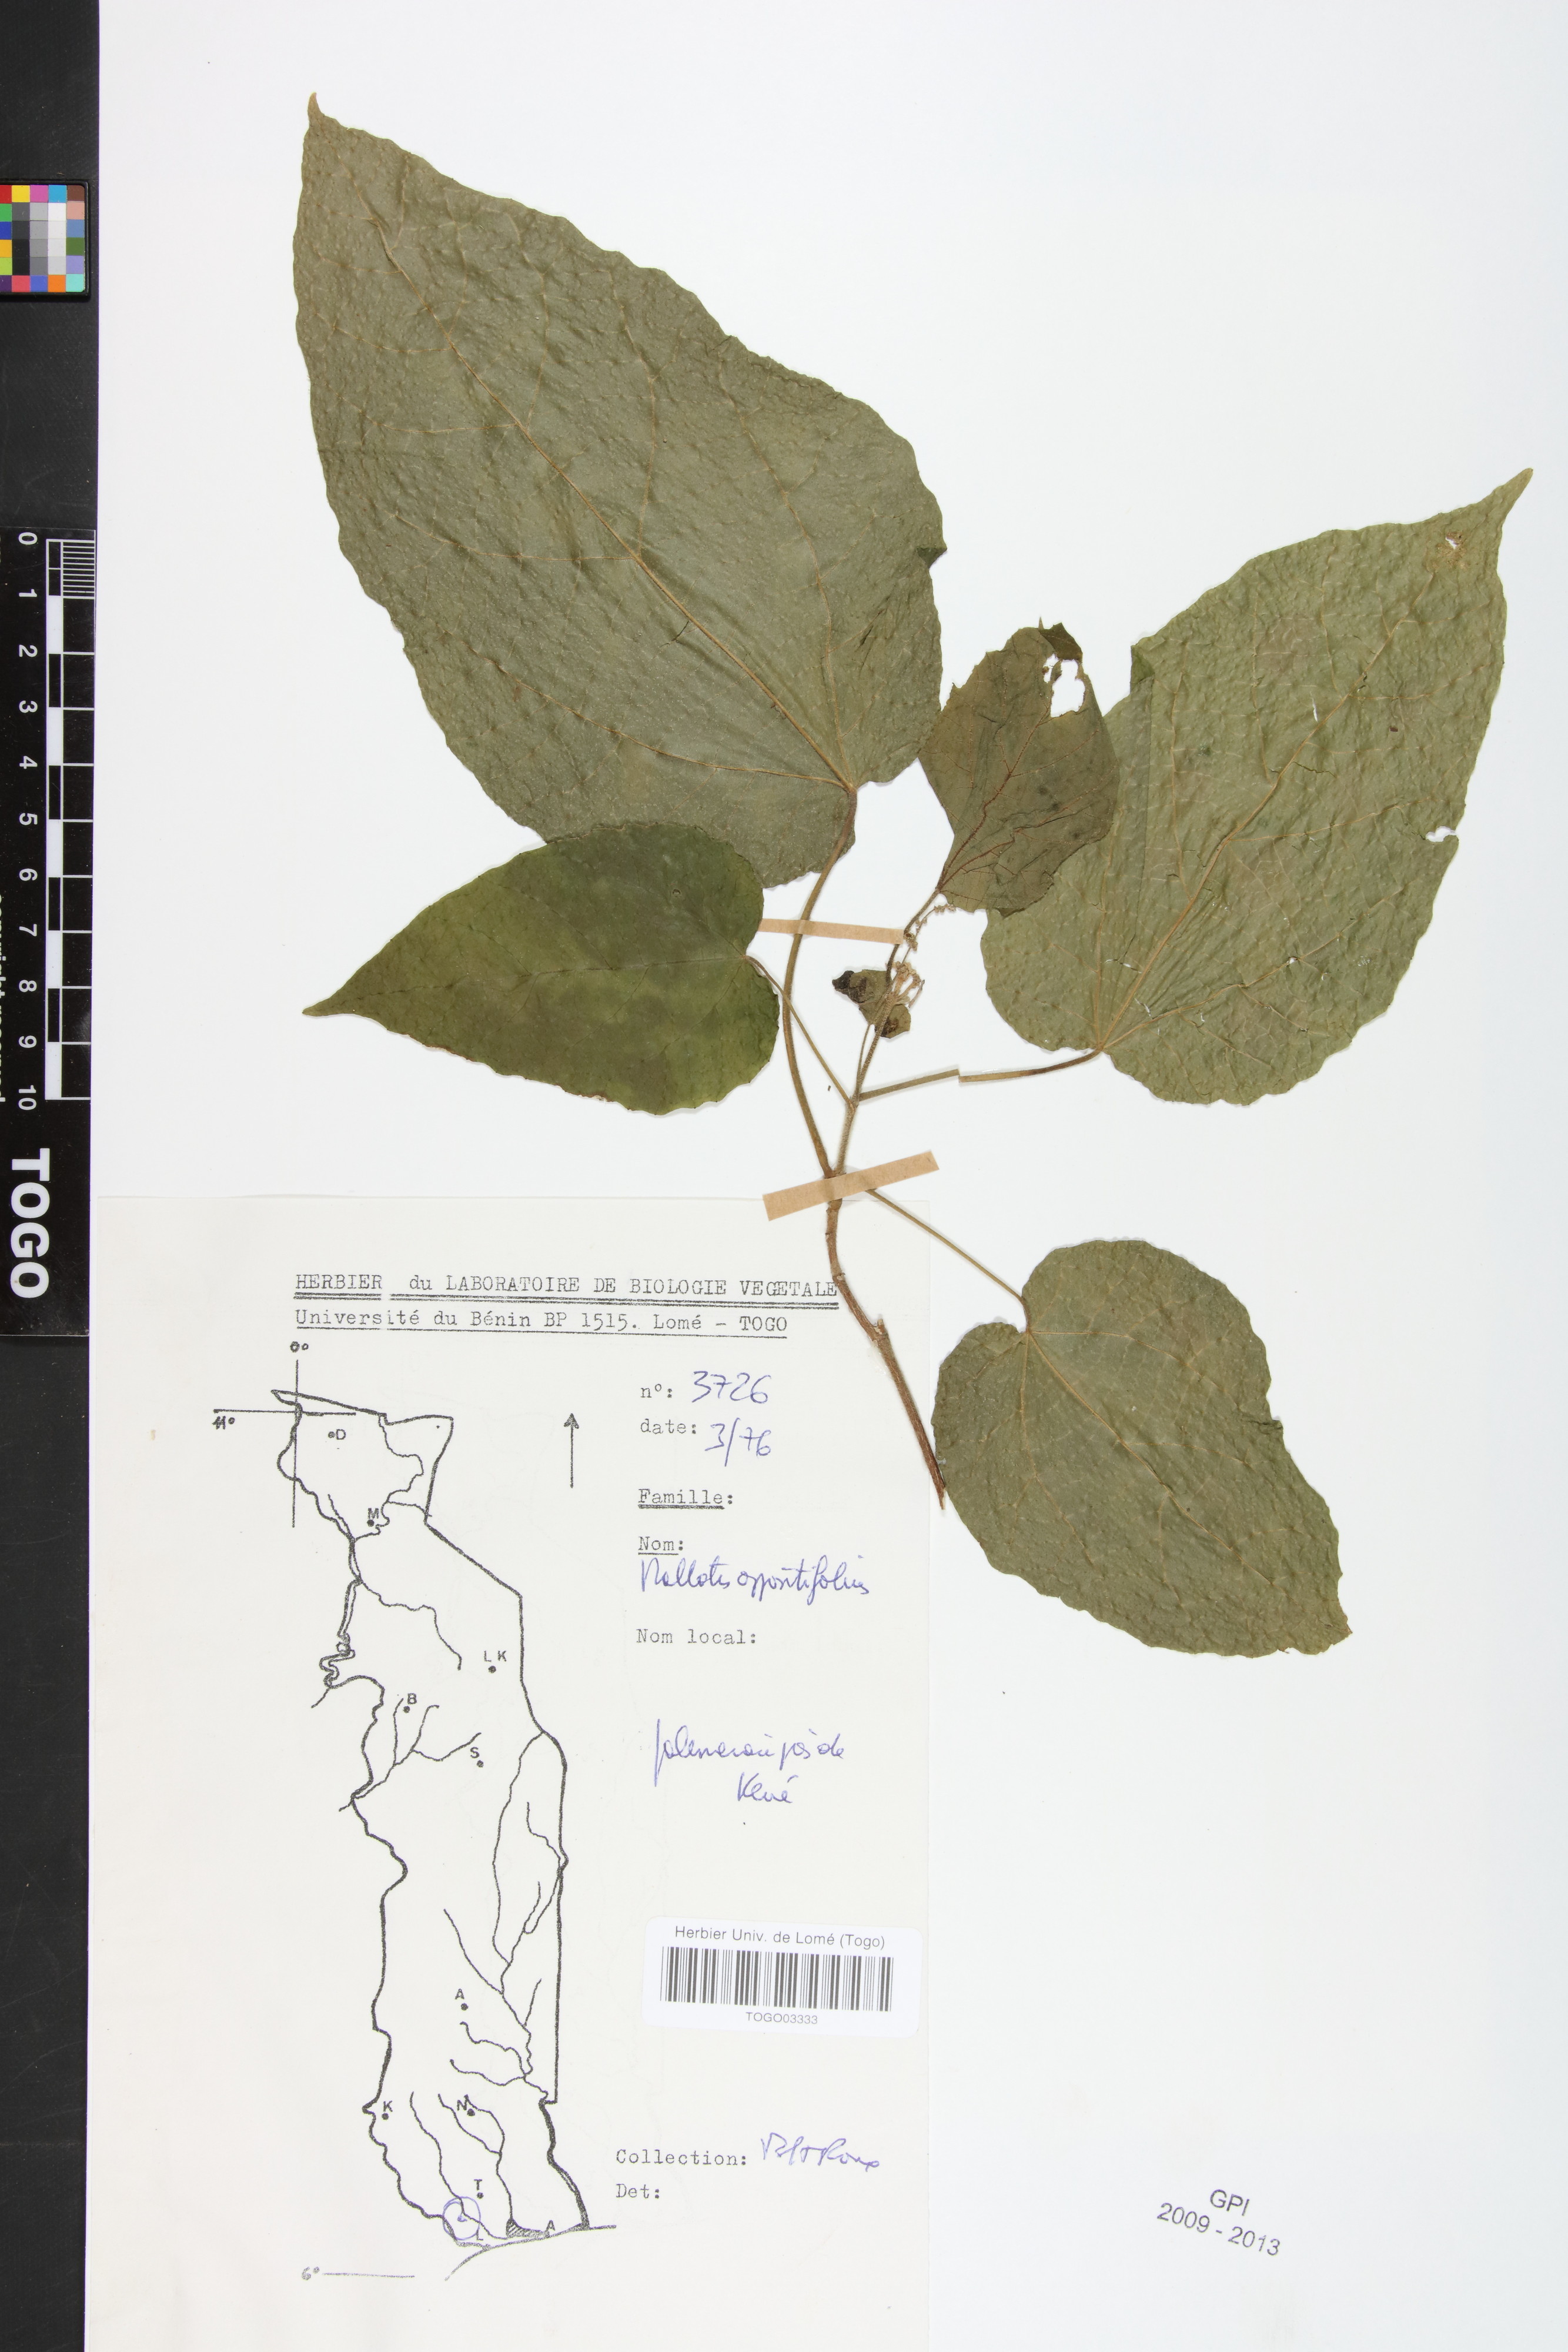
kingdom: Plantae
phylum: Tracheophyta
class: Magnoliopsida
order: Malpighiales
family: Euphorbiaceae
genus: Mallotus
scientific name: Mallotus oppositifolius
